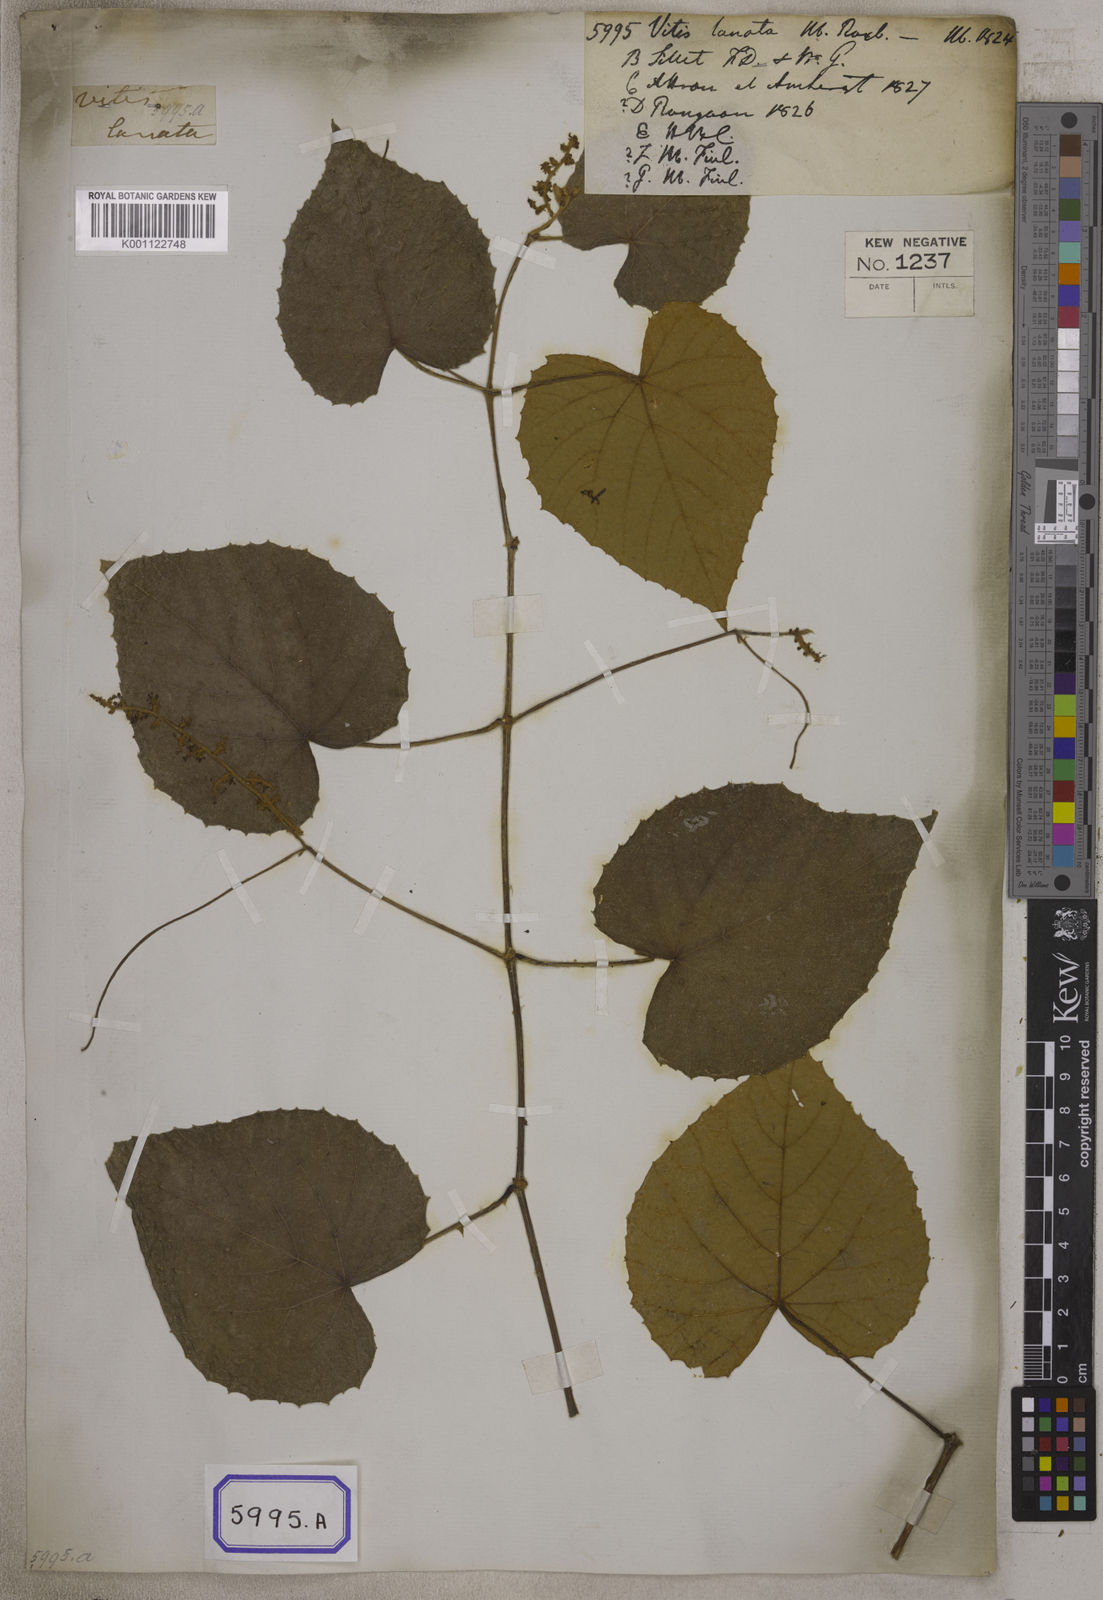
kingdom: Plantae
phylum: Tracheophyta
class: Magnoliopsida
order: Vitales
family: Vitaceae
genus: Vitis
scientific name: Vitis
